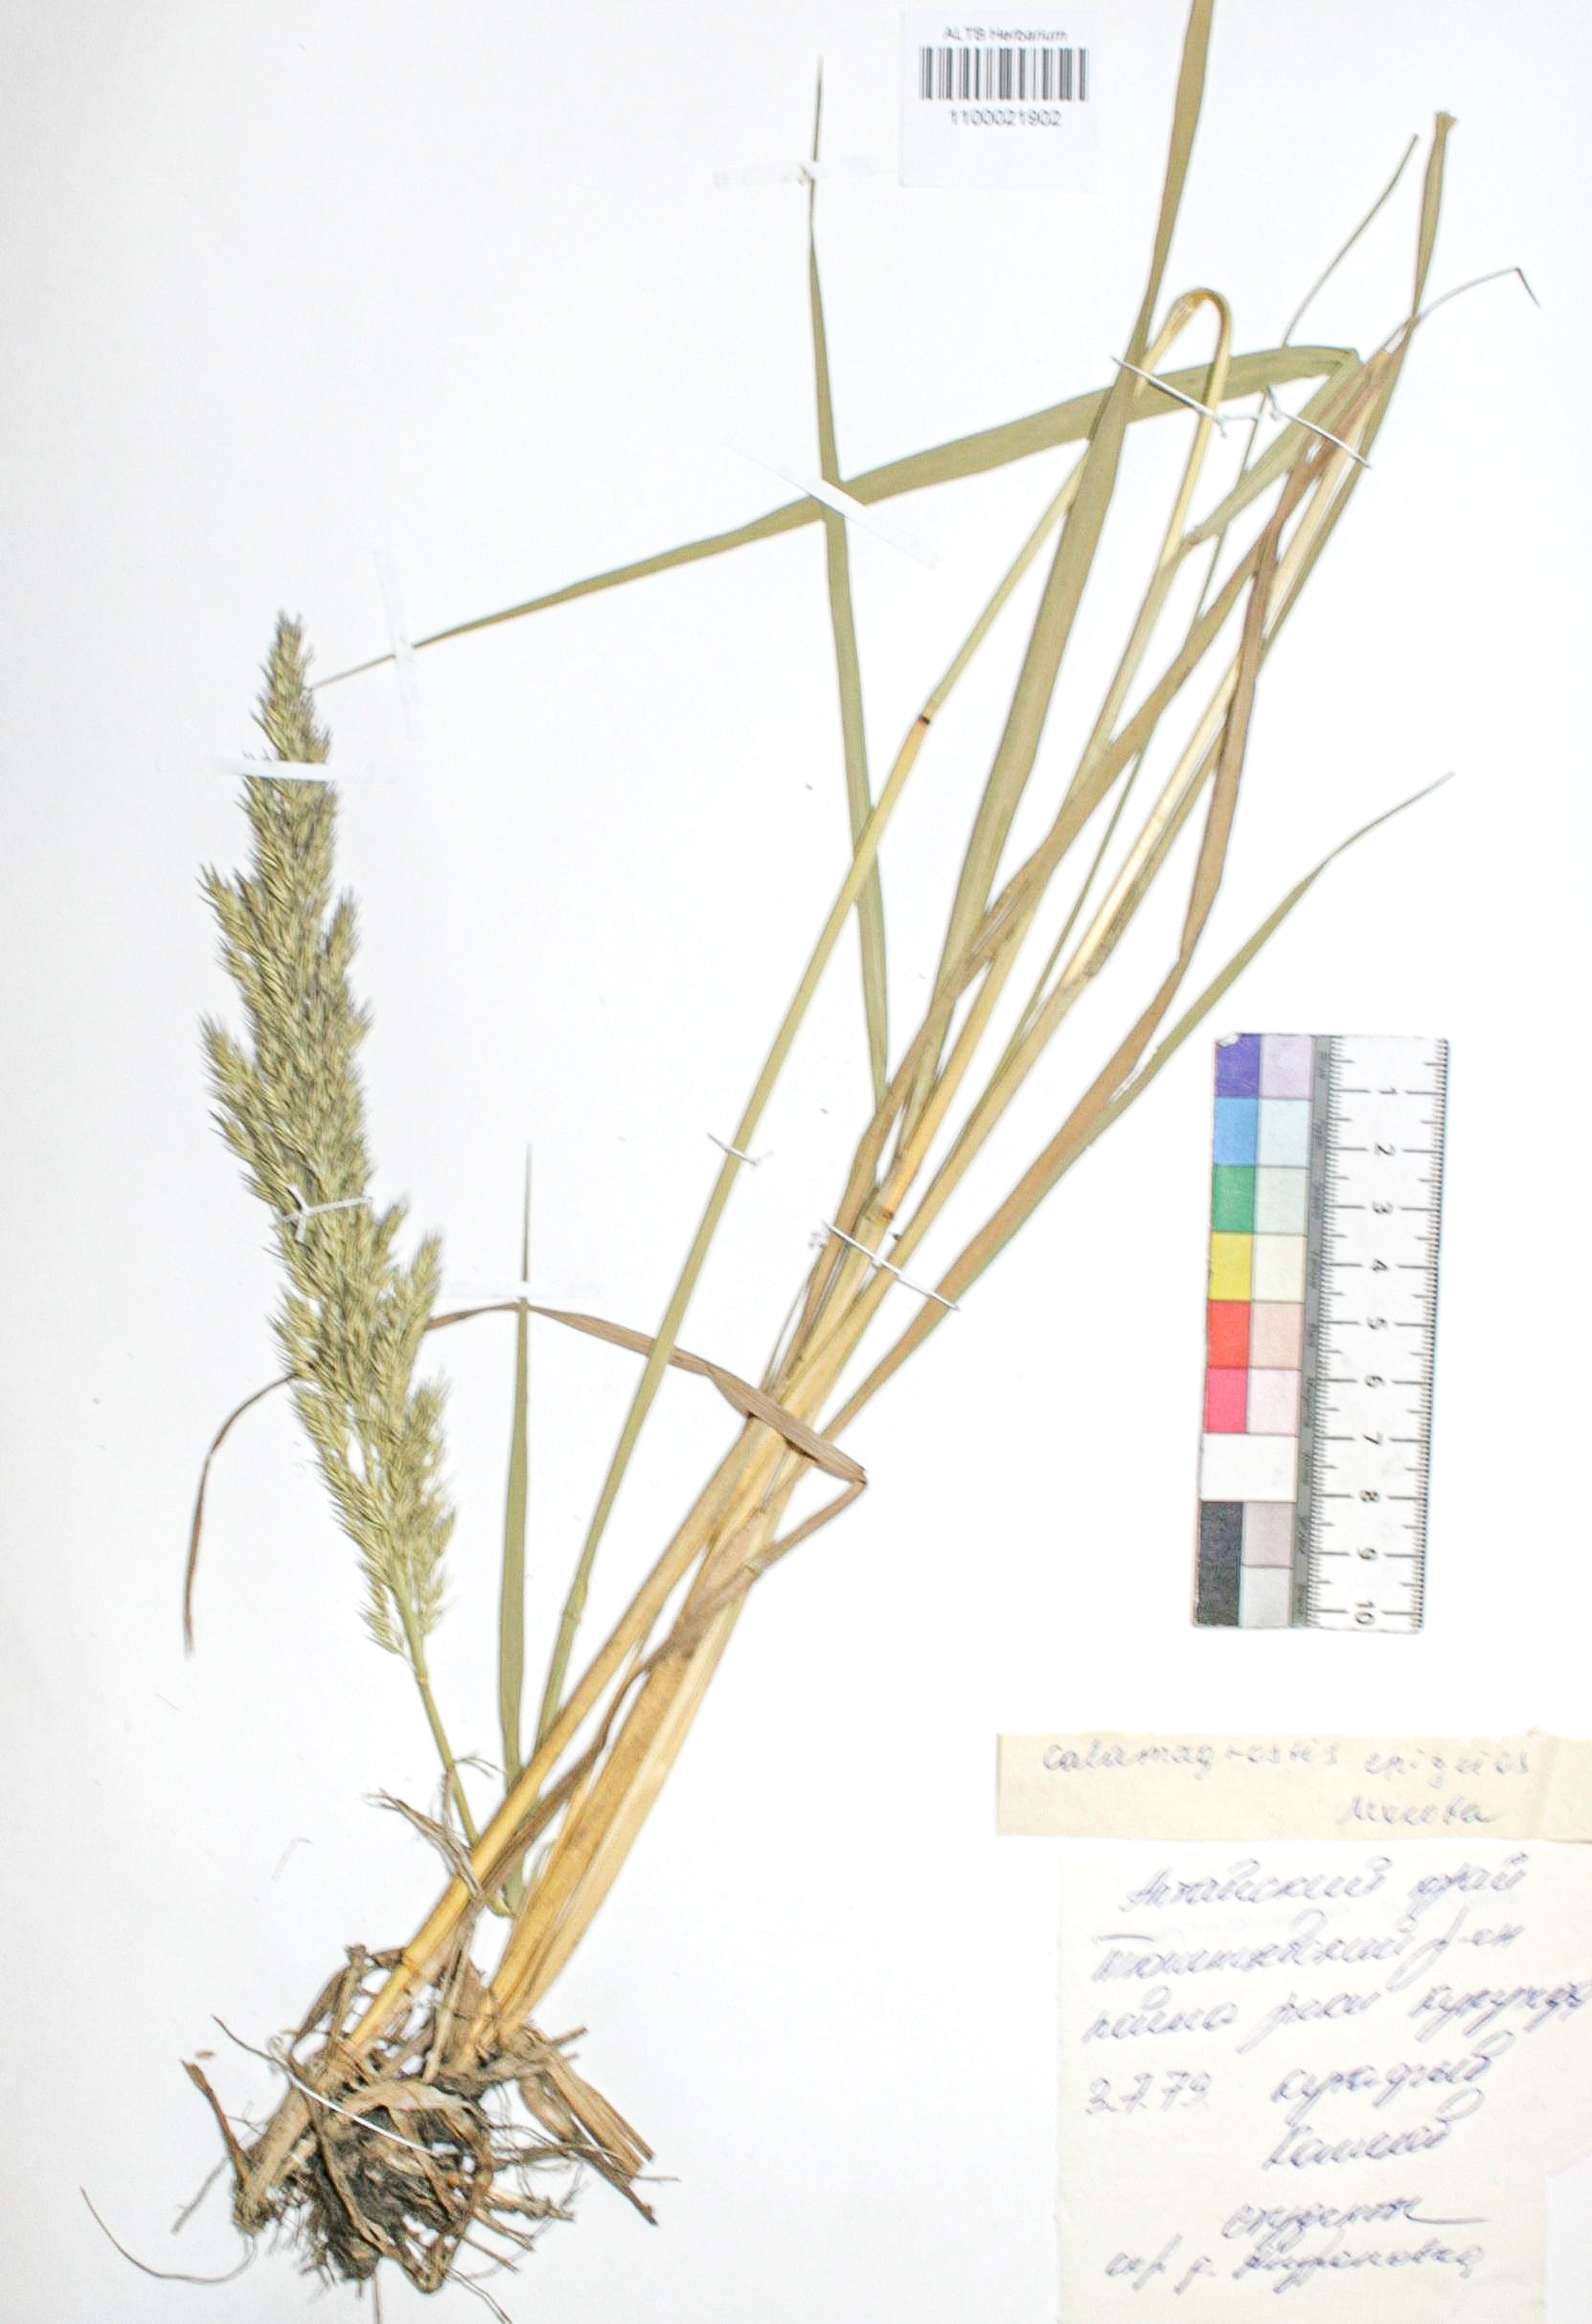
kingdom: Plantae
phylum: Tracheophyta
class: Liliopsida
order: Poales
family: Poaceae
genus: Calamagrostis
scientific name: Calamagrostis epigejos
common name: Wood small-reed
